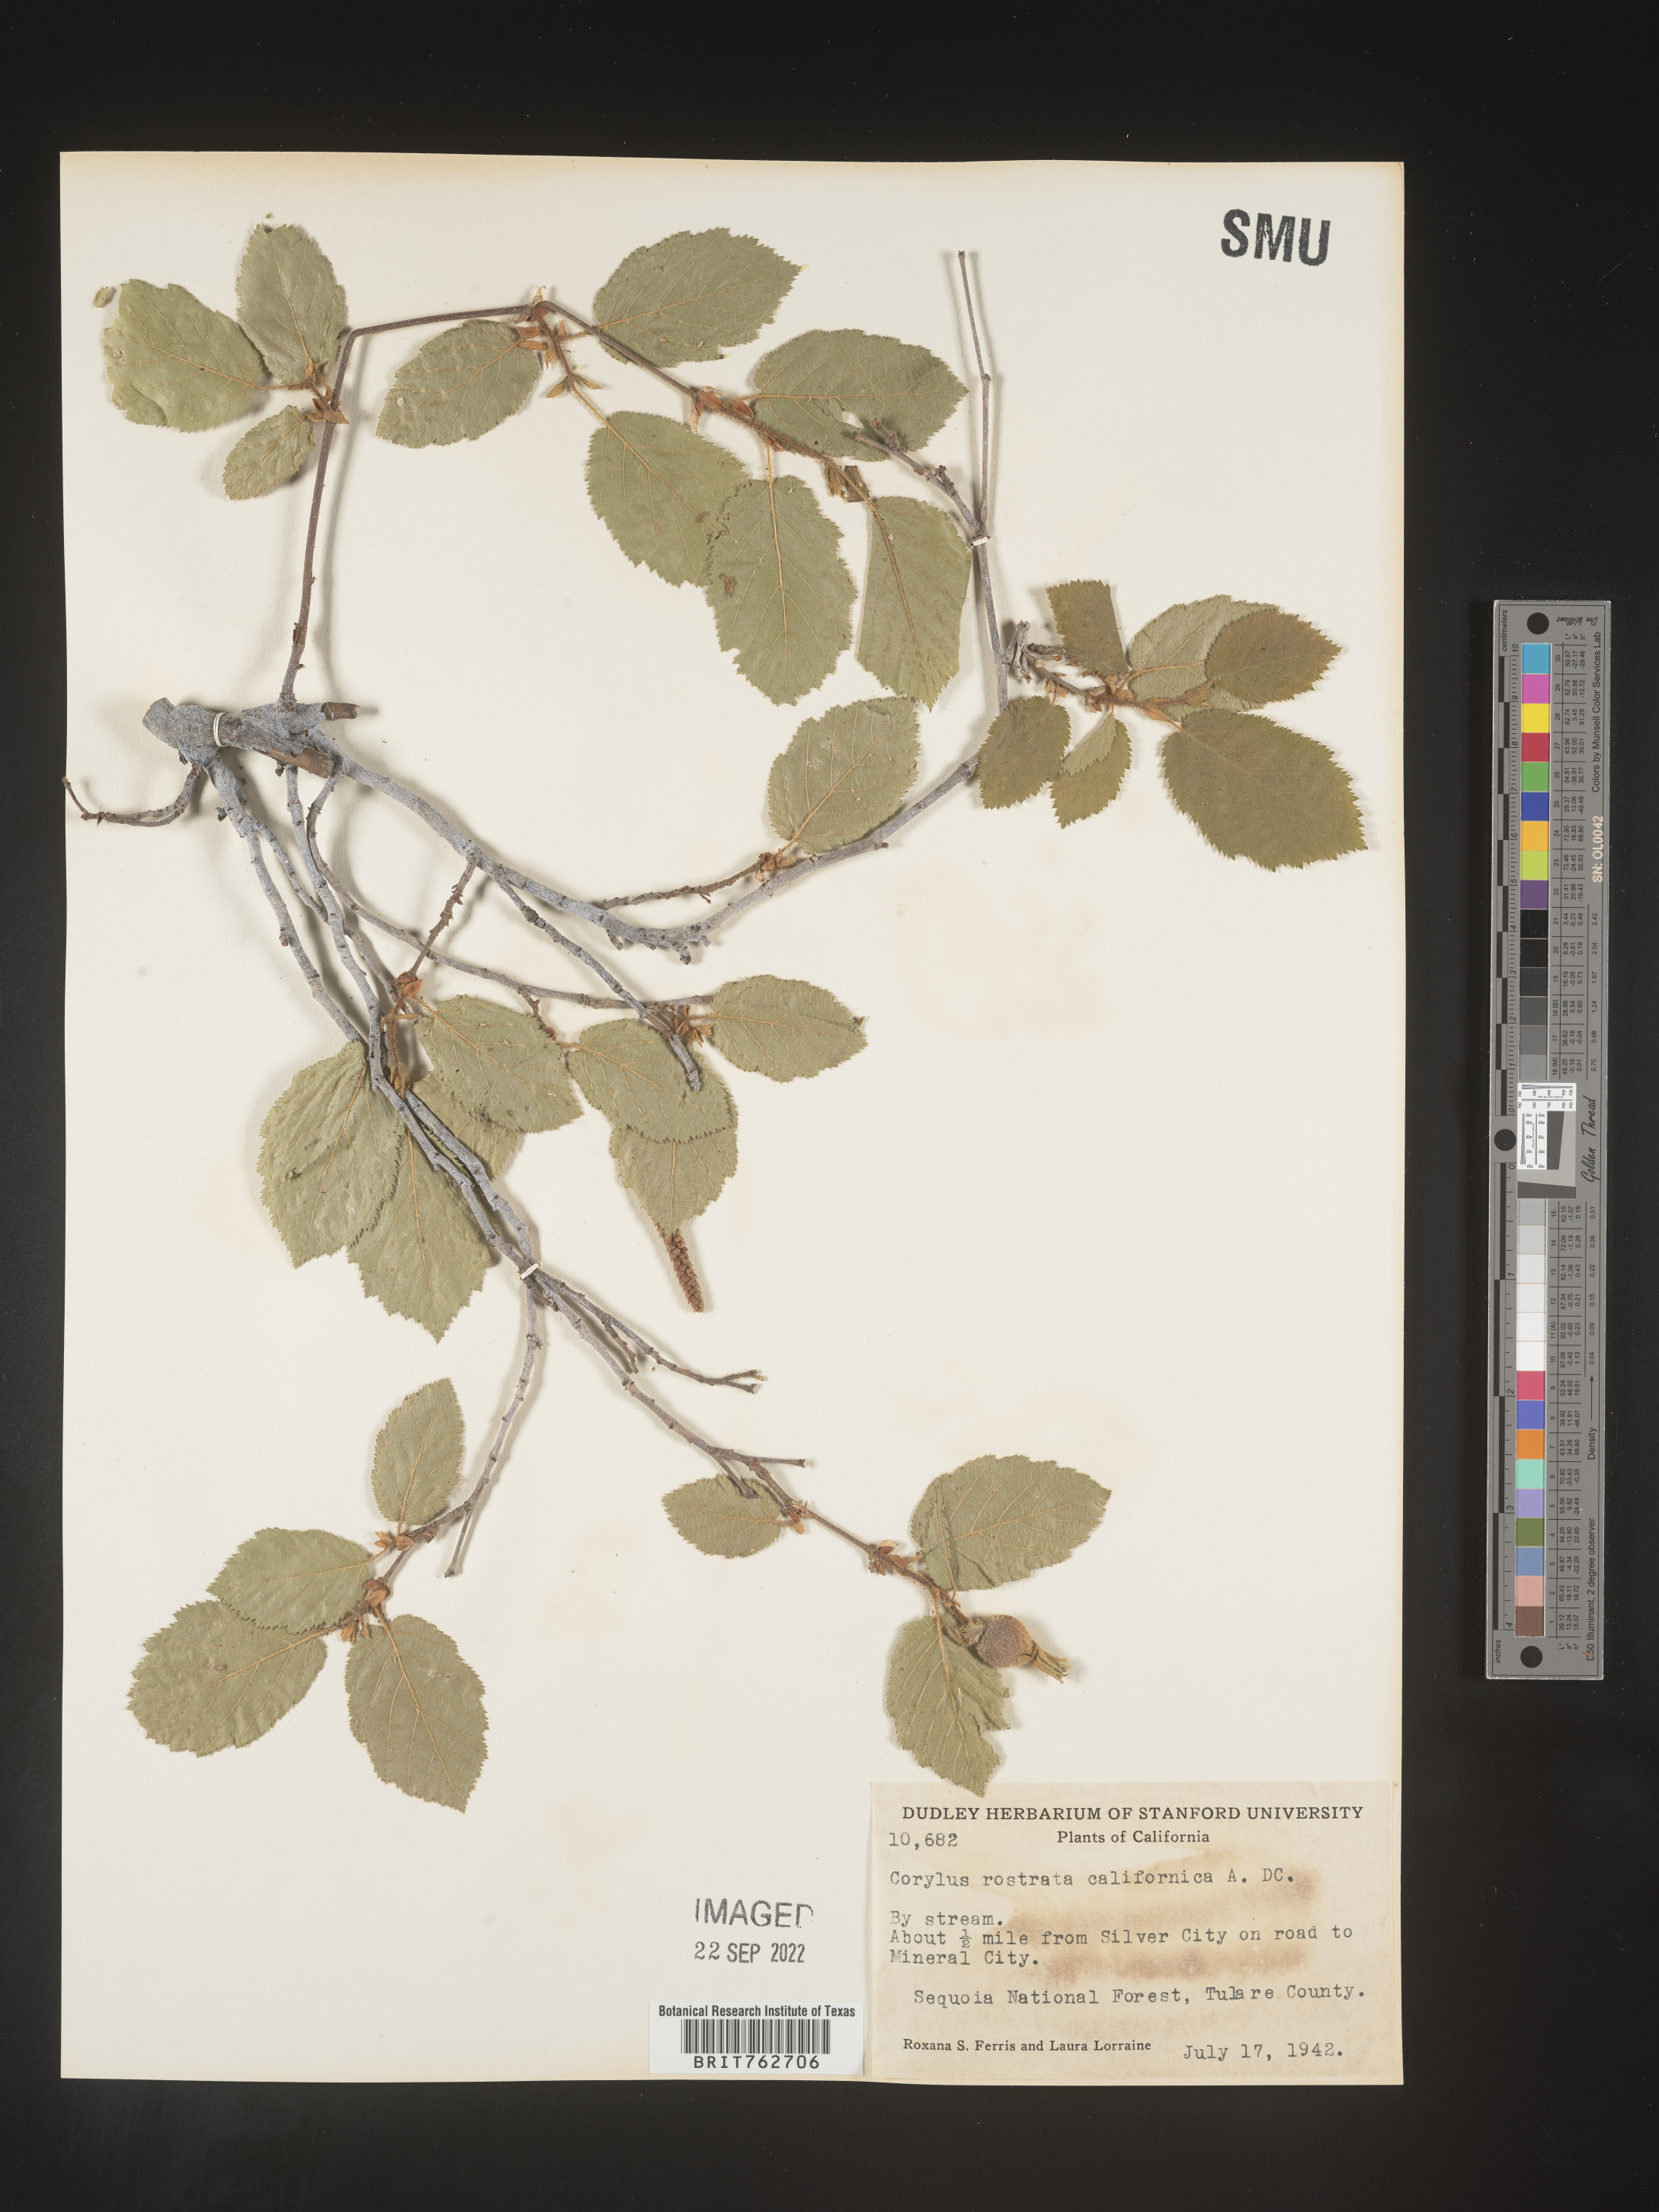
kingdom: Plantae
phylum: Tracheophyta
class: Magnoliopsida
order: Fagales
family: Betulaceae
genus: Corylus
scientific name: Corylus cornuta
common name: Beaked hazel
